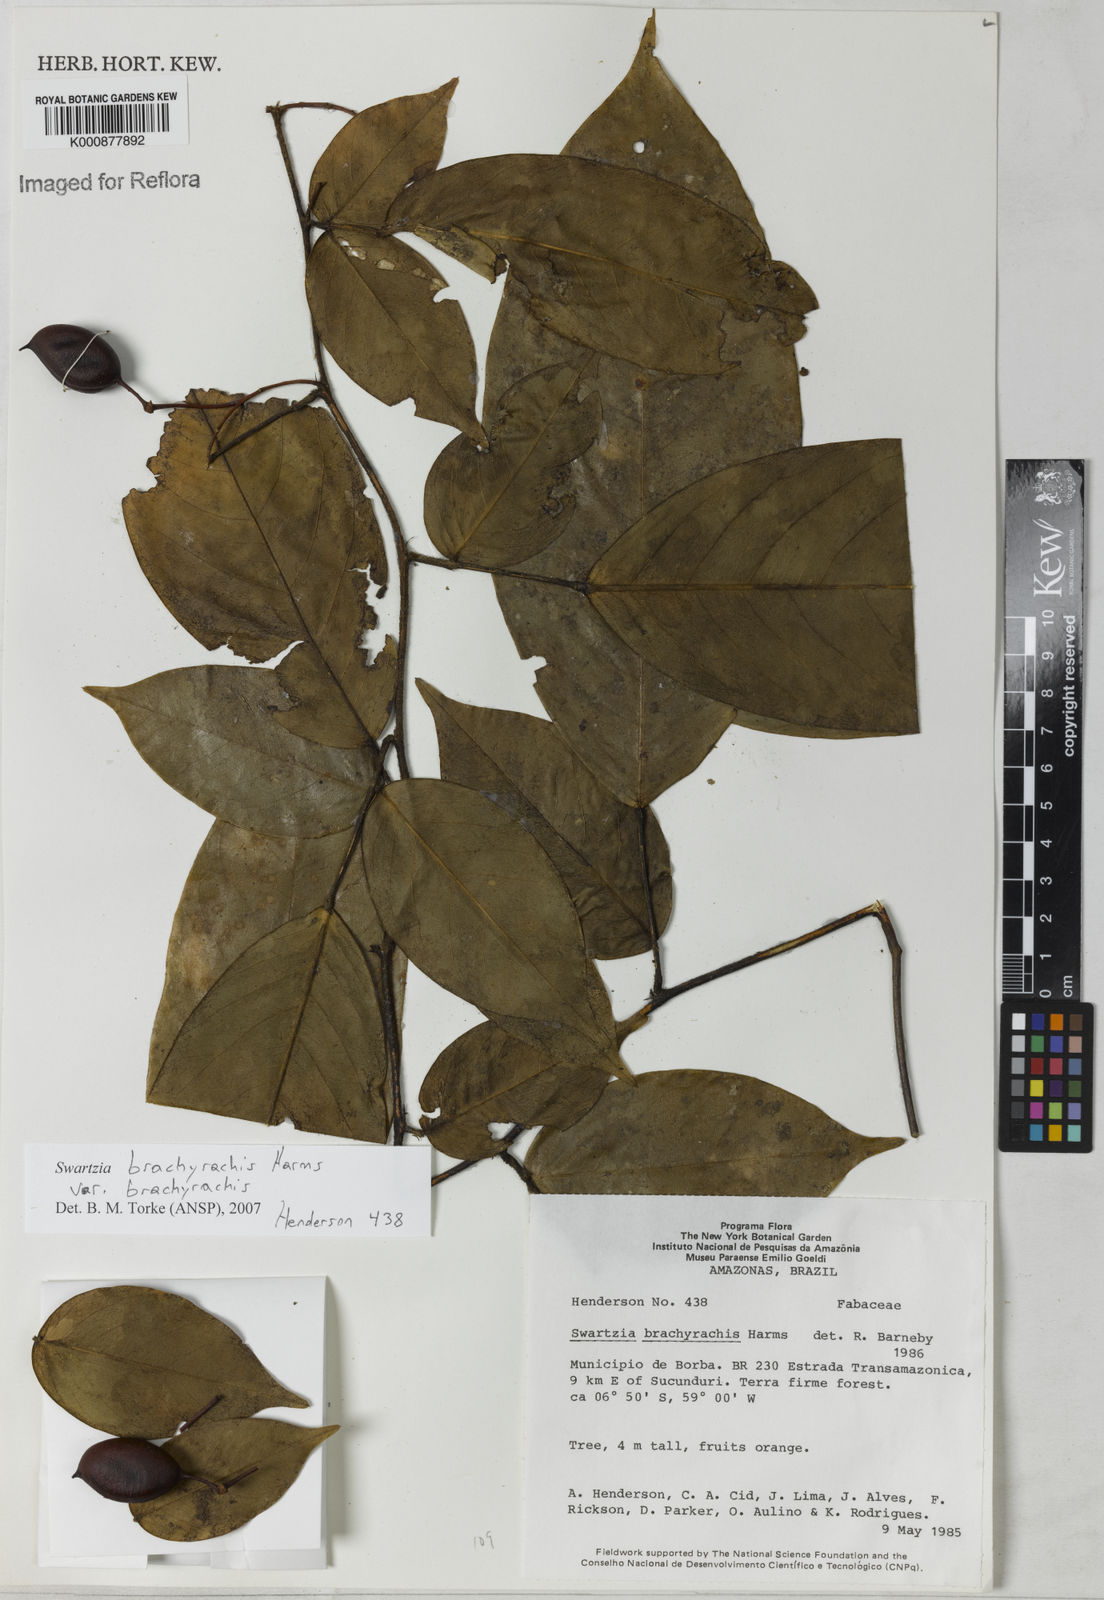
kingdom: Plantae
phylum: Tracheophyta
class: Magnoliopsida
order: Fabales
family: Fabaceae
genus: Swartzia
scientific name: Swartzia
